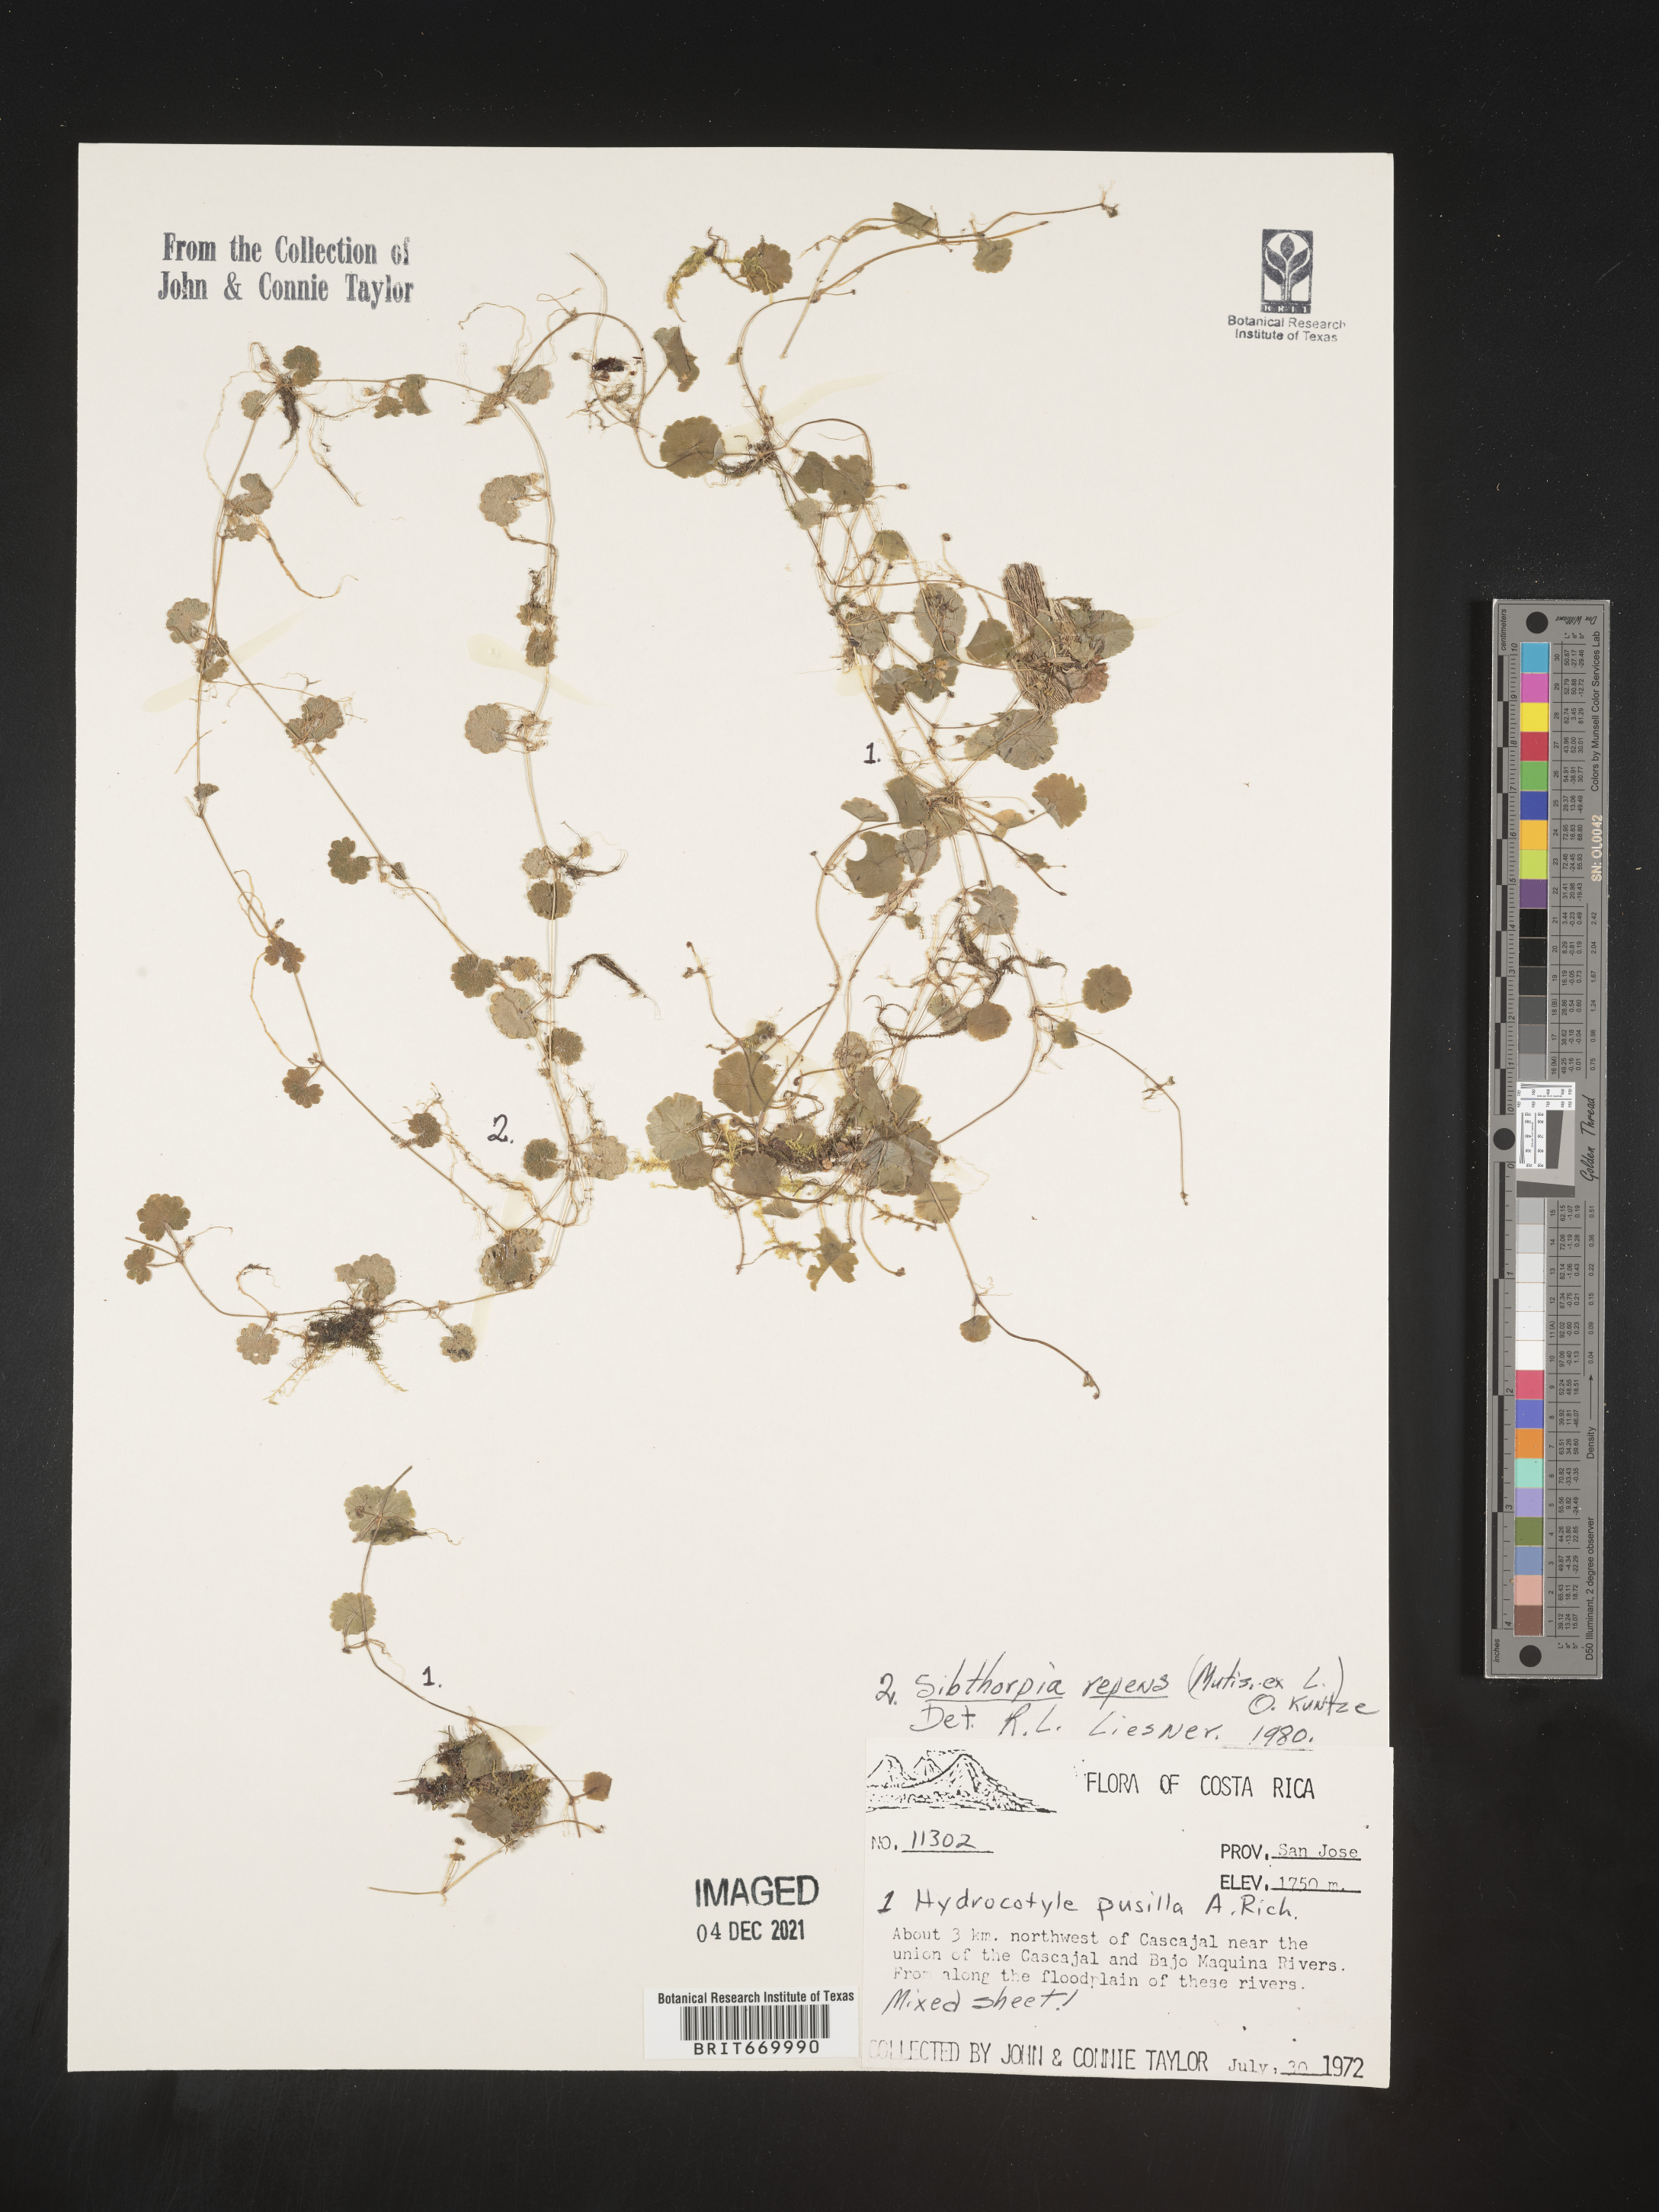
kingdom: Plantae
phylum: Tracheophyta
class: Magnoliopsida
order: Apiales
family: Araliaceae
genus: Hydrocotyle
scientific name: Hydrocotyle
